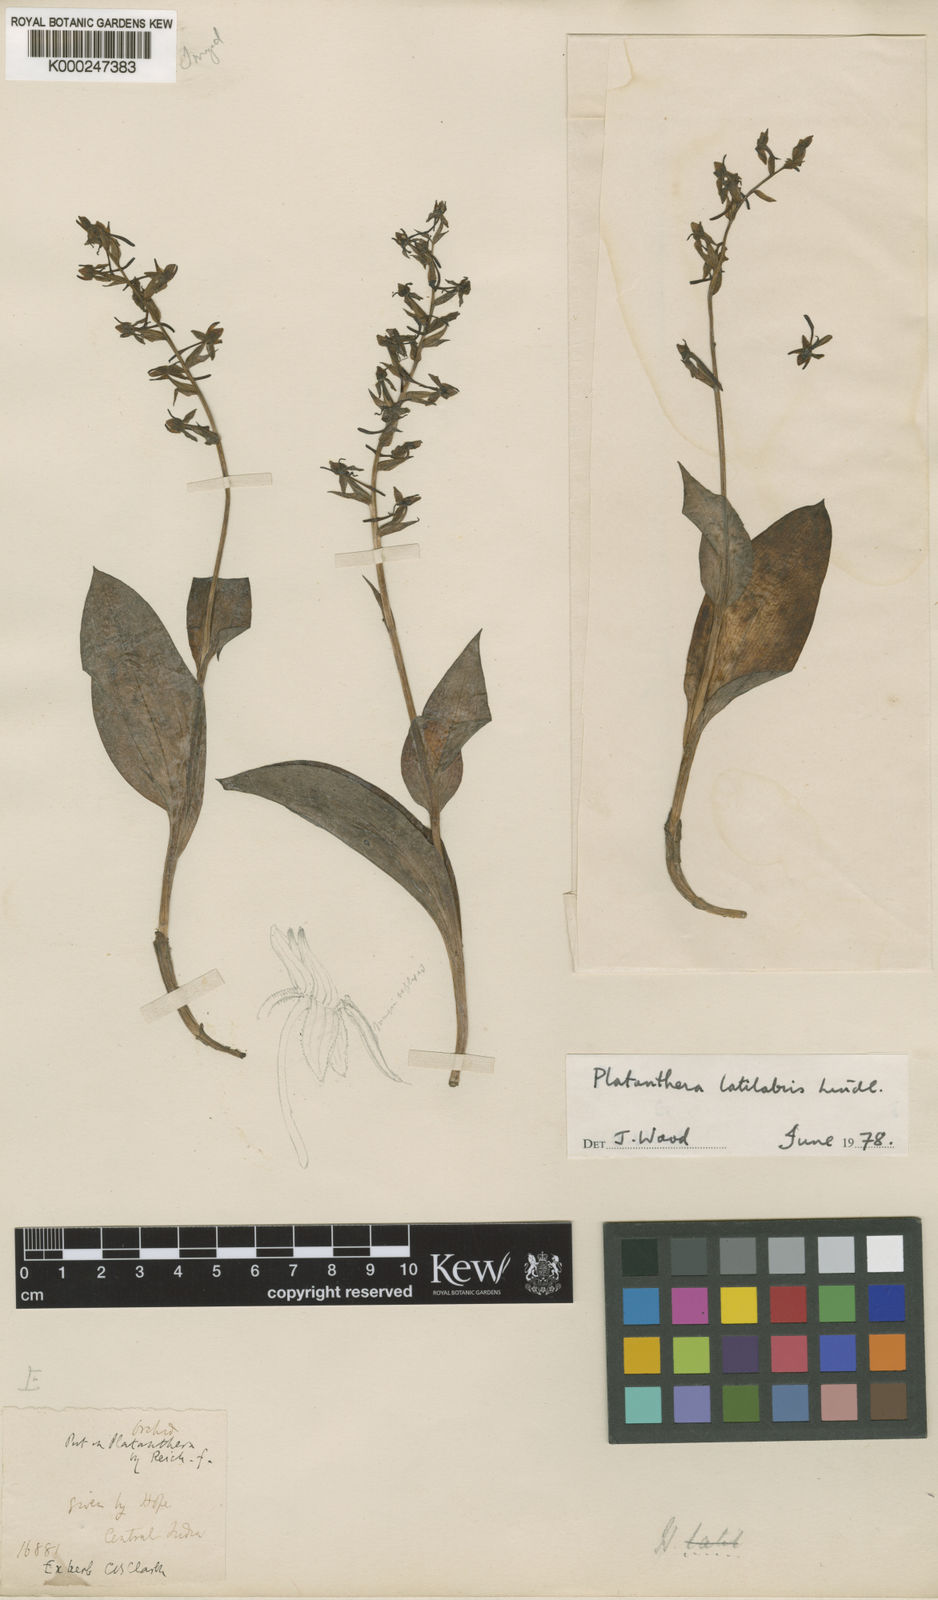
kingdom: Plantae
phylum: Tracheophyta
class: Liliopsida
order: Asparagales
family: Orchidaceae
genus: Herminium
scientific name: Herminium latilabre
